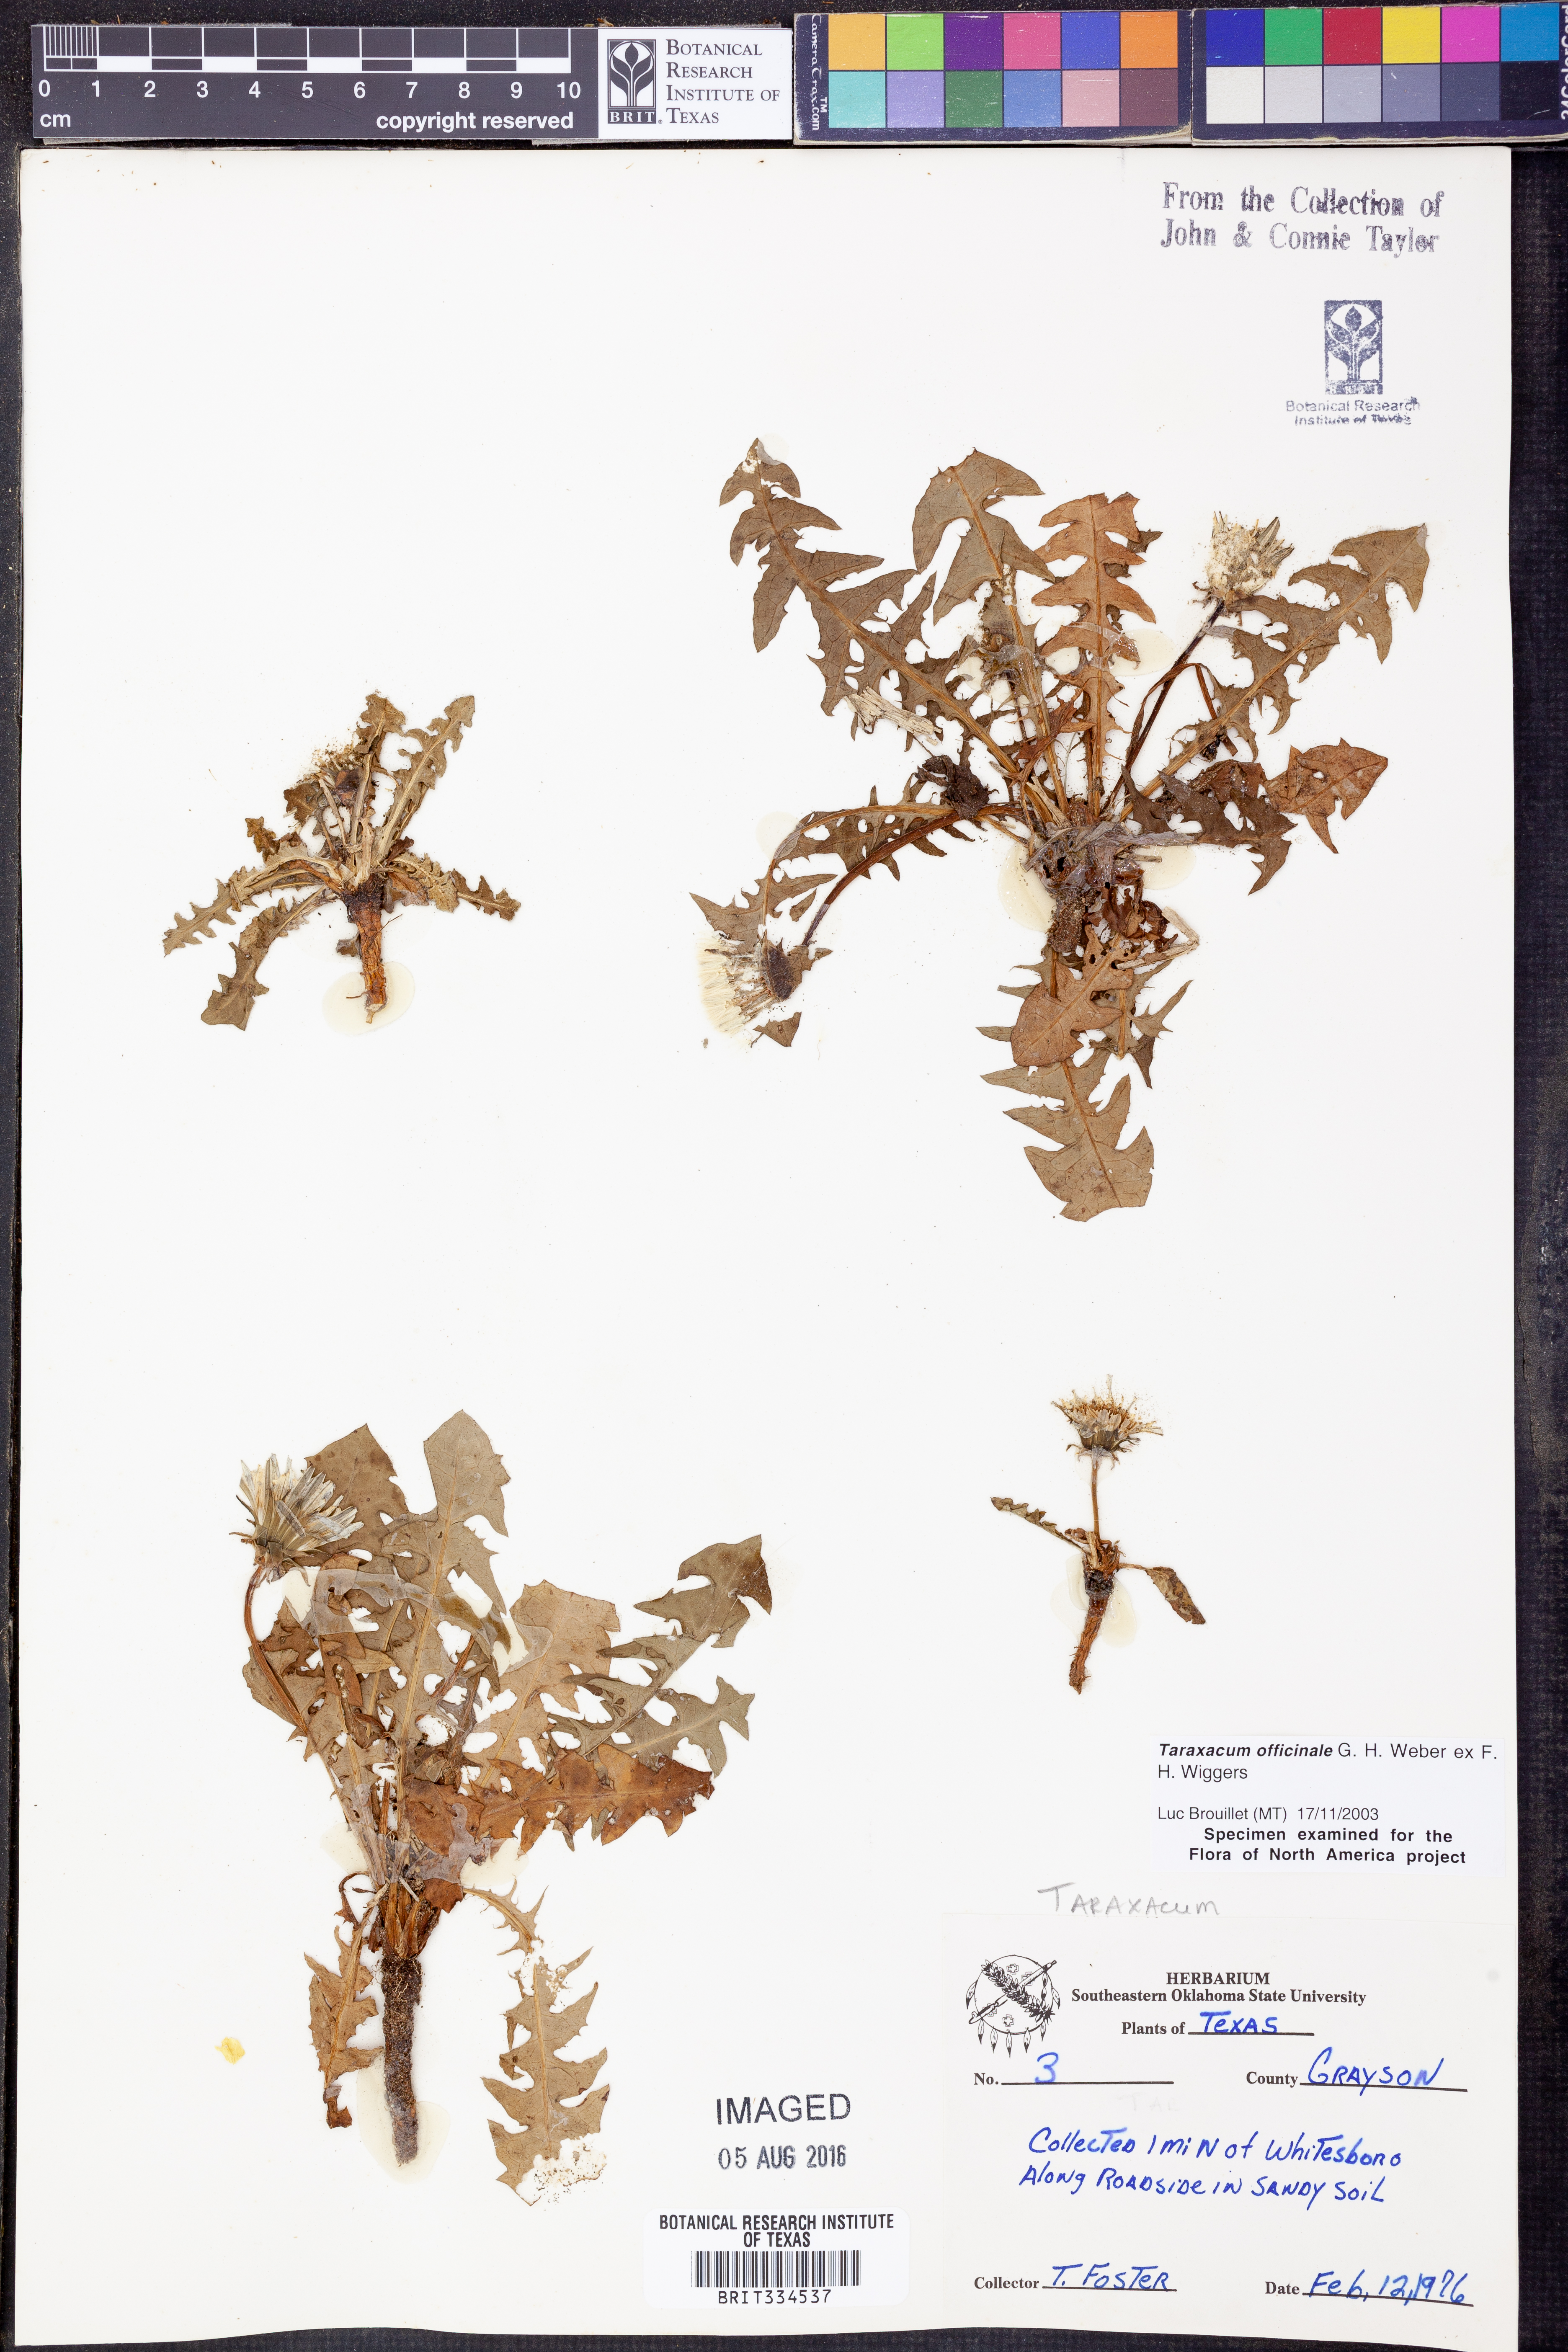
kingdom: Plantae
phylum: Tracheophyta
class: Magnoliopsida
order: Asterales
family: Asteraceae
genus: Taraxacum
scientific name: Taraxacum officinale
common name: Common dandelion
